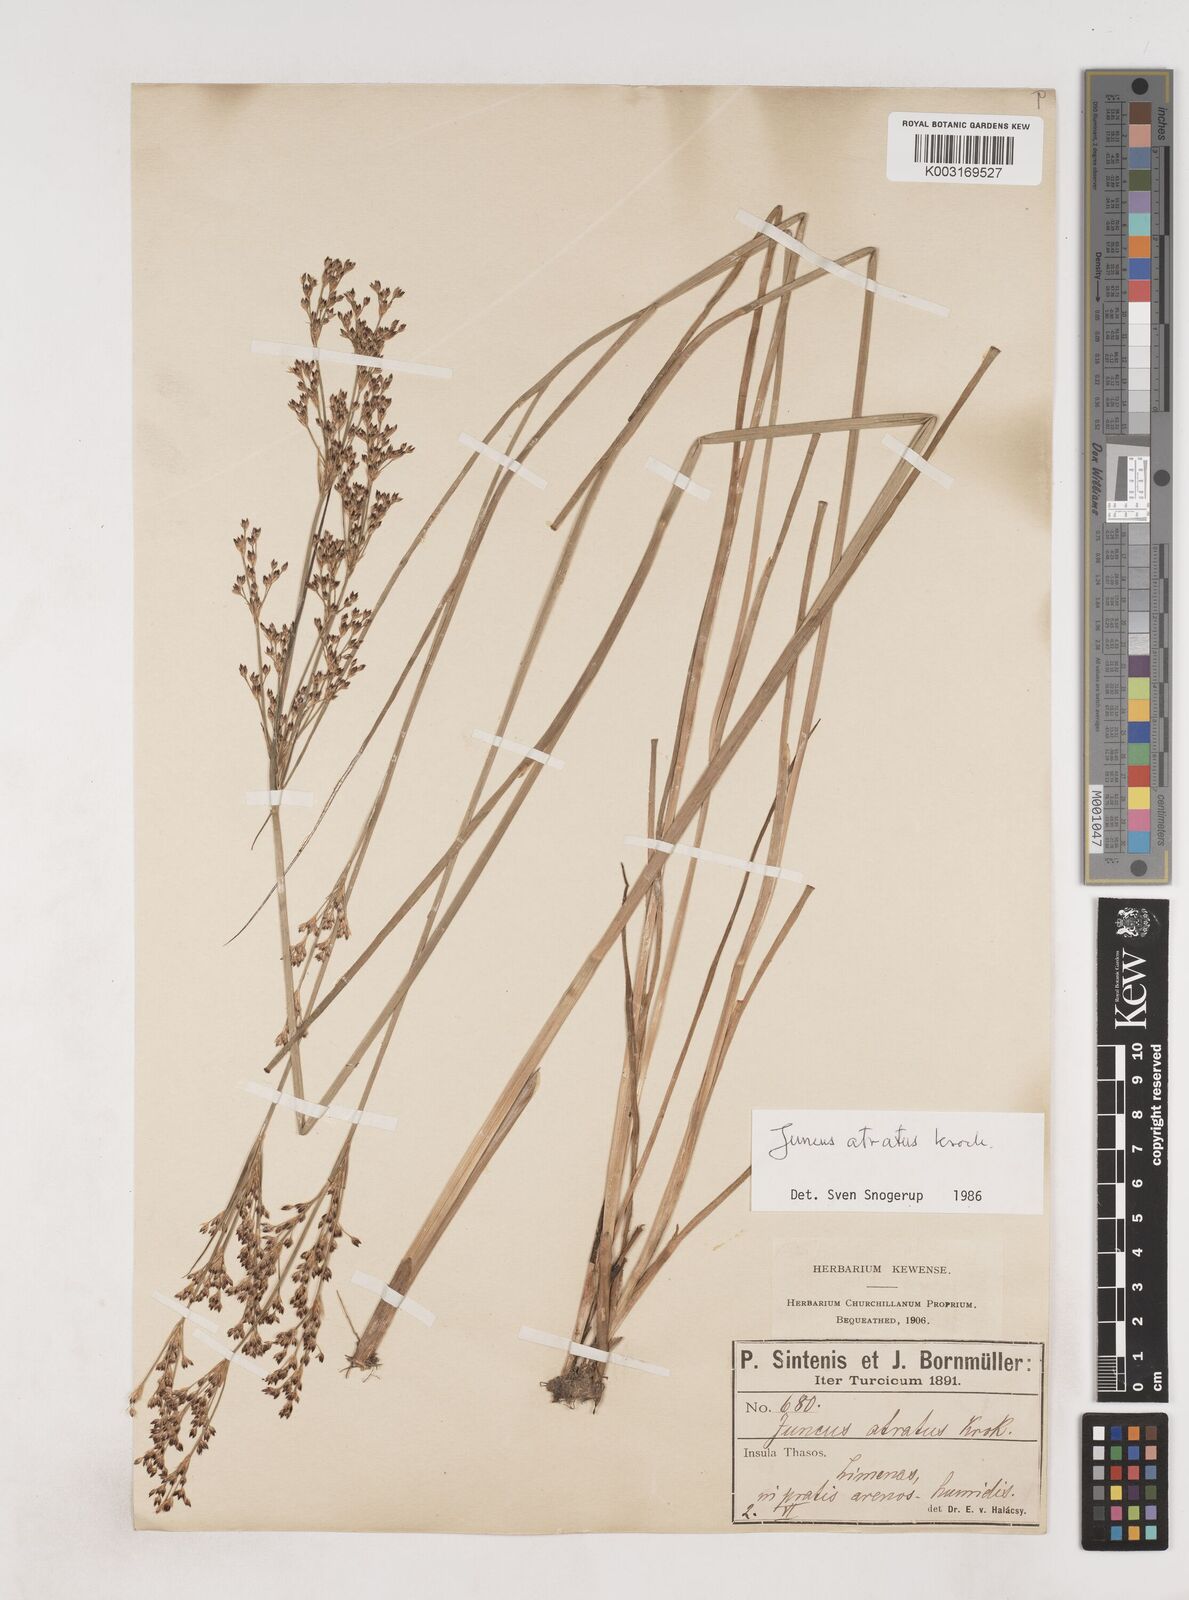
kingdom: Plantae
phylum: Tracheophyta
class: Liliopsida
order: Poales
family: Juncaceae
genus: Juncus
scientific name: Juncus atratus
